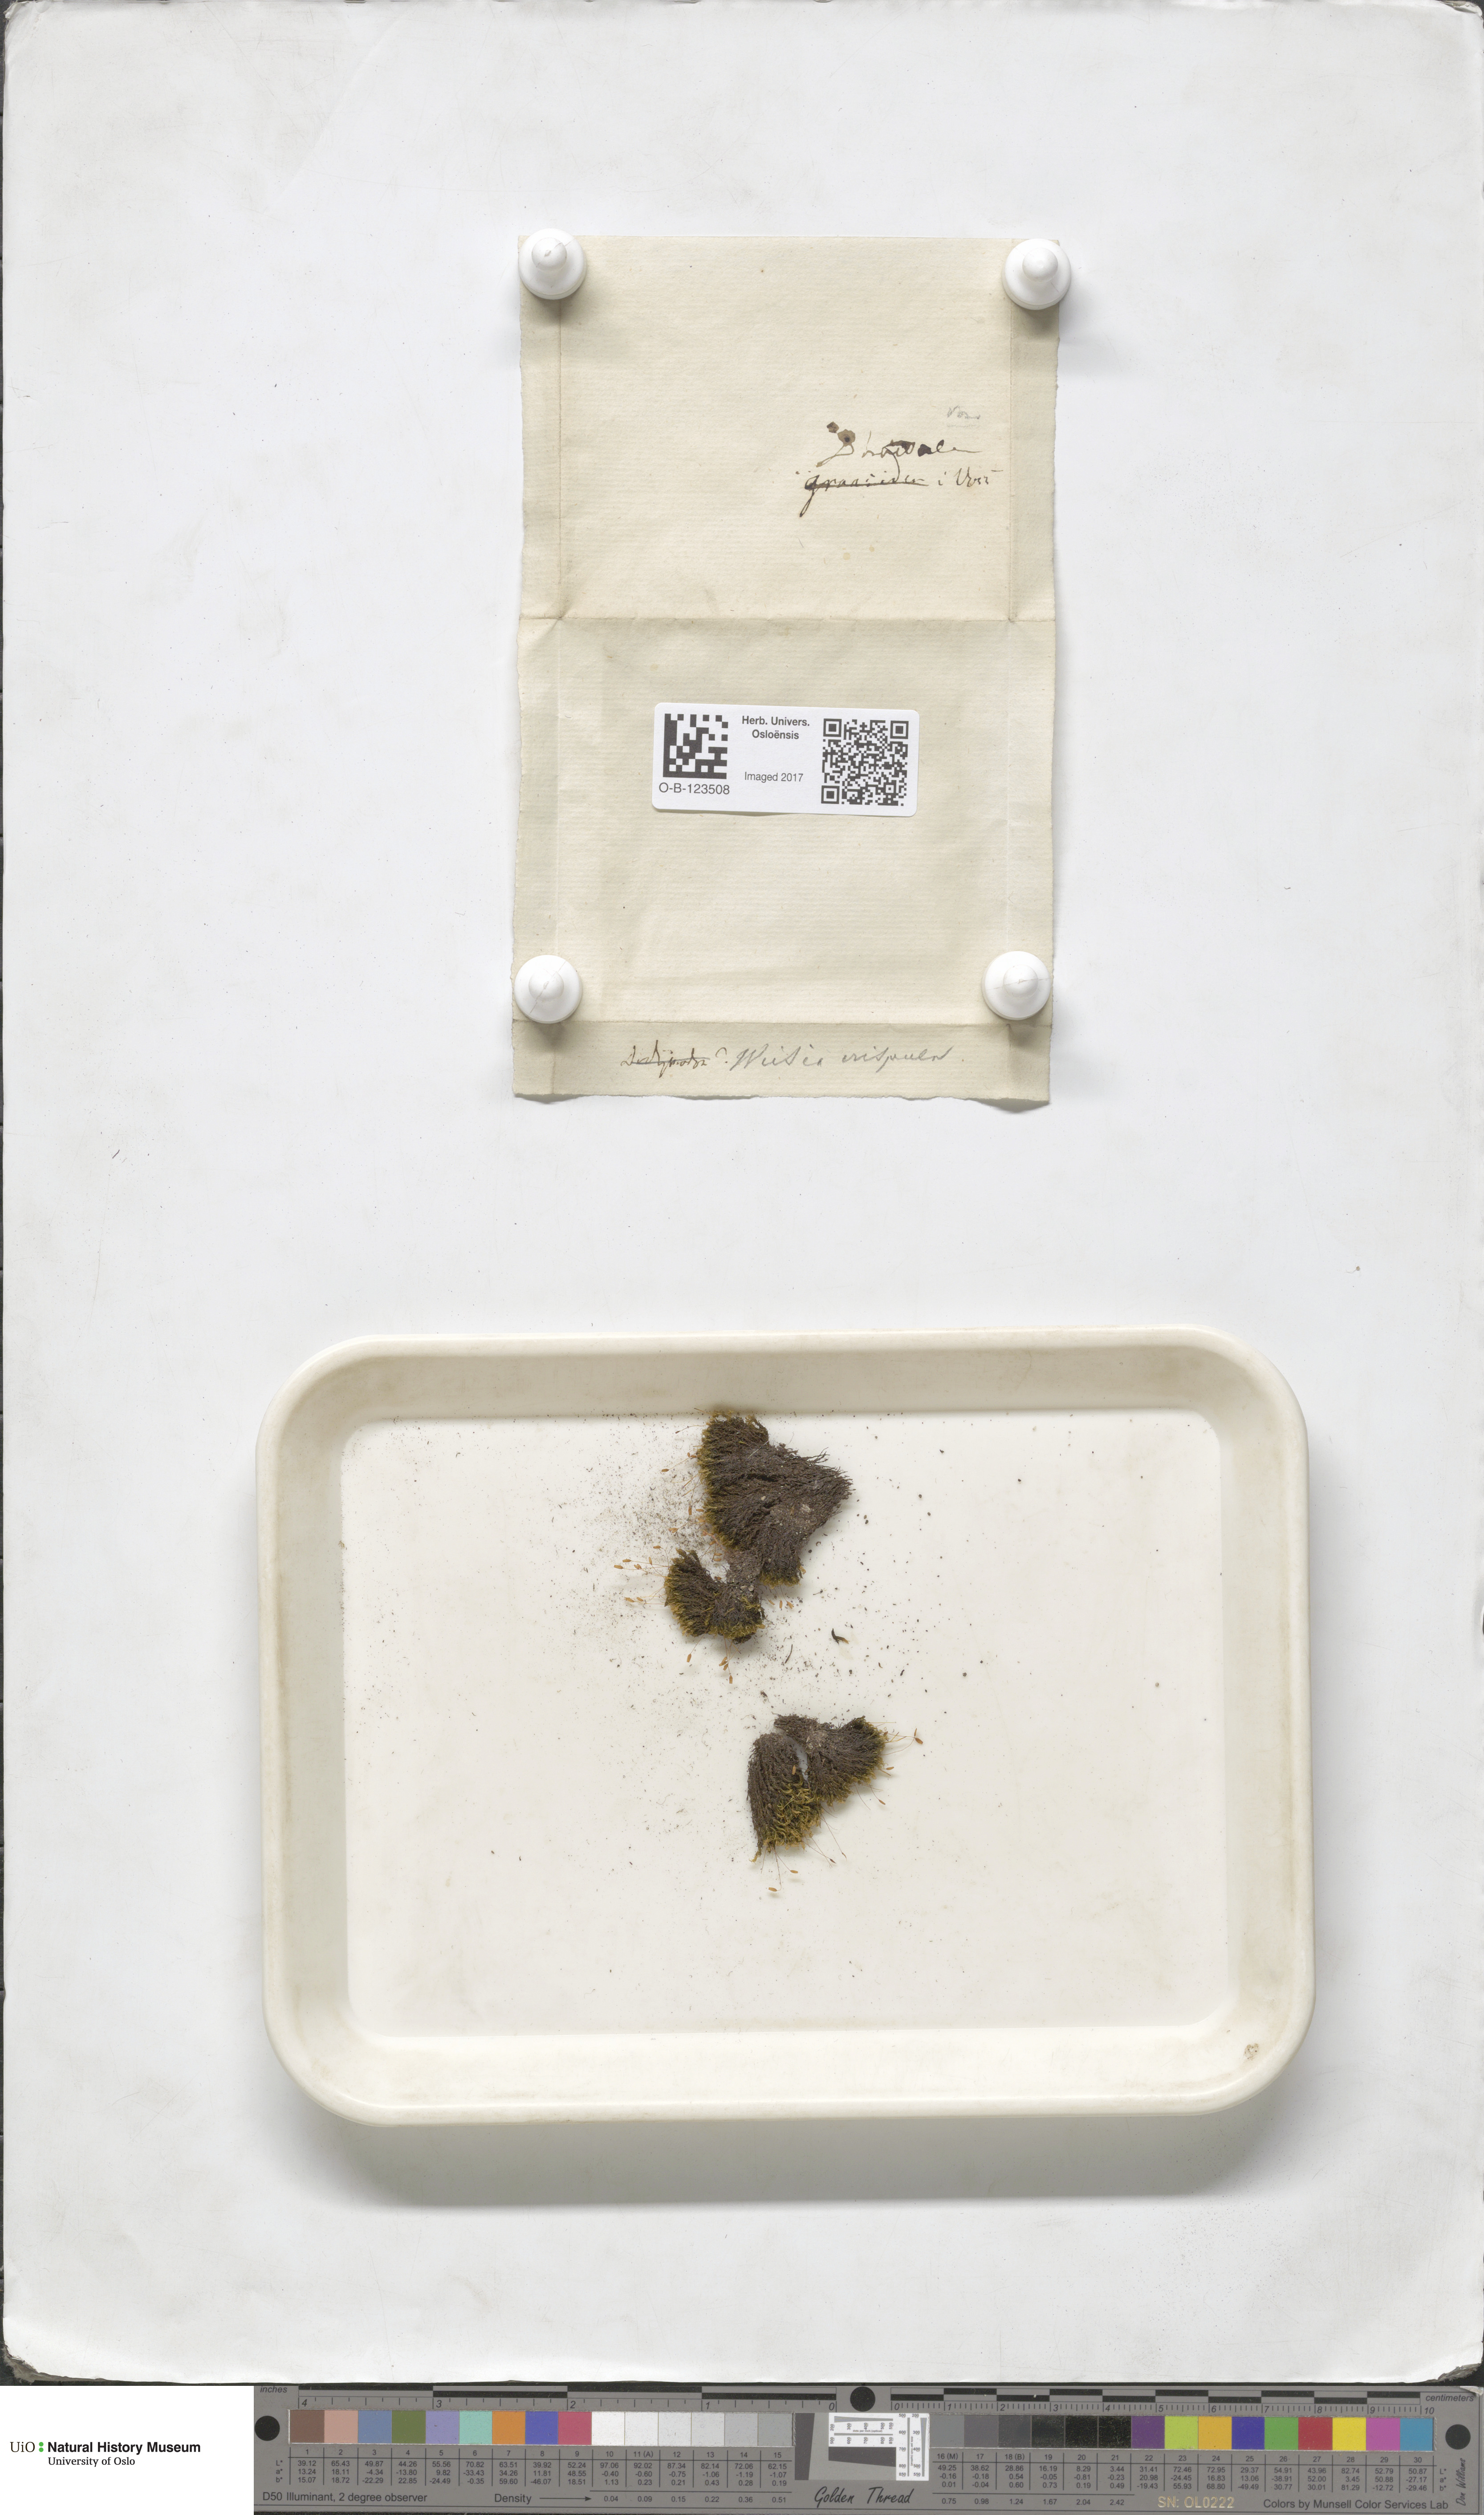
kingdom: Plantae
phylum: Bryophyta
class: Bryopsida
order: Scouleriales
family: Hymenolomataceae
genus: Hymenoloma
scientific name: Hymenoloma crispulum
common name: Mountain pincushion
